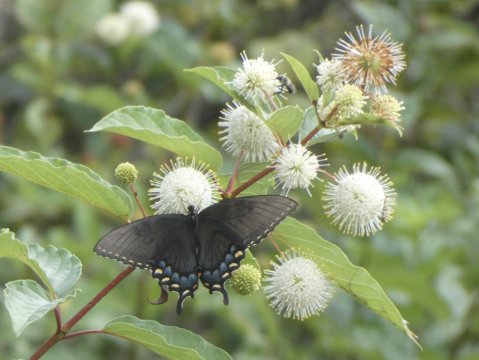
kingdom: Animalia
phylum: Arthropoda
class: Insecta
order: Lepidoptera
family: Papilionidae
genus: Pterourus
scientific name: Pterourus glaucus
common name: Eastern Tiger Swallowtail
